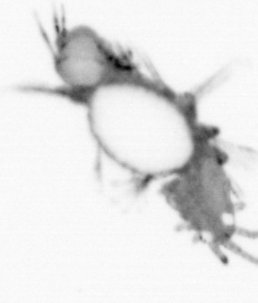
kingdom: Animalia
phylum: Annelida
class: Polychaeta
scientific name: Polychaeta
